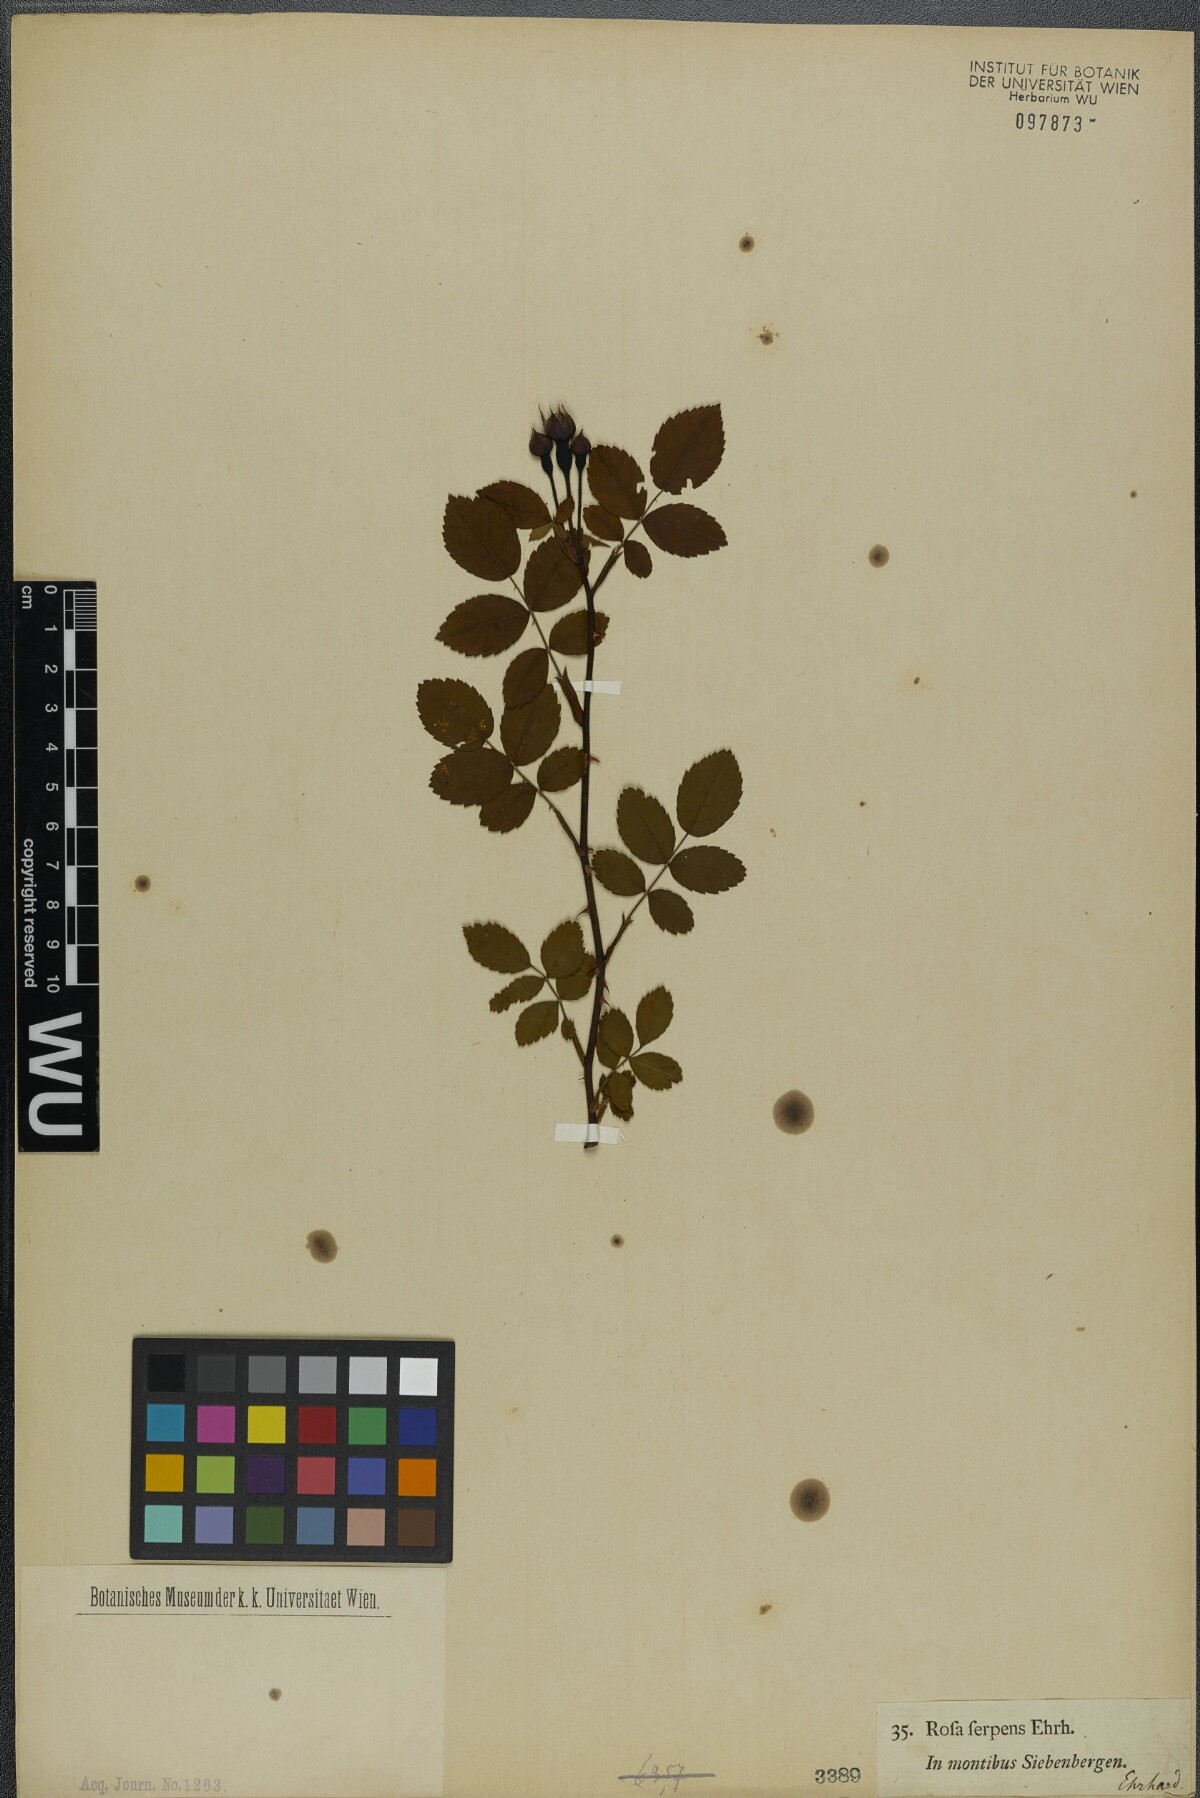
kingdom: Plantae
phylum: Tracheophyta
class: Magnoliopsida
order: Rosales
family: Rosaceae
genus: Rosa
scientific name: Rosa arvensis
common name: Field rose
